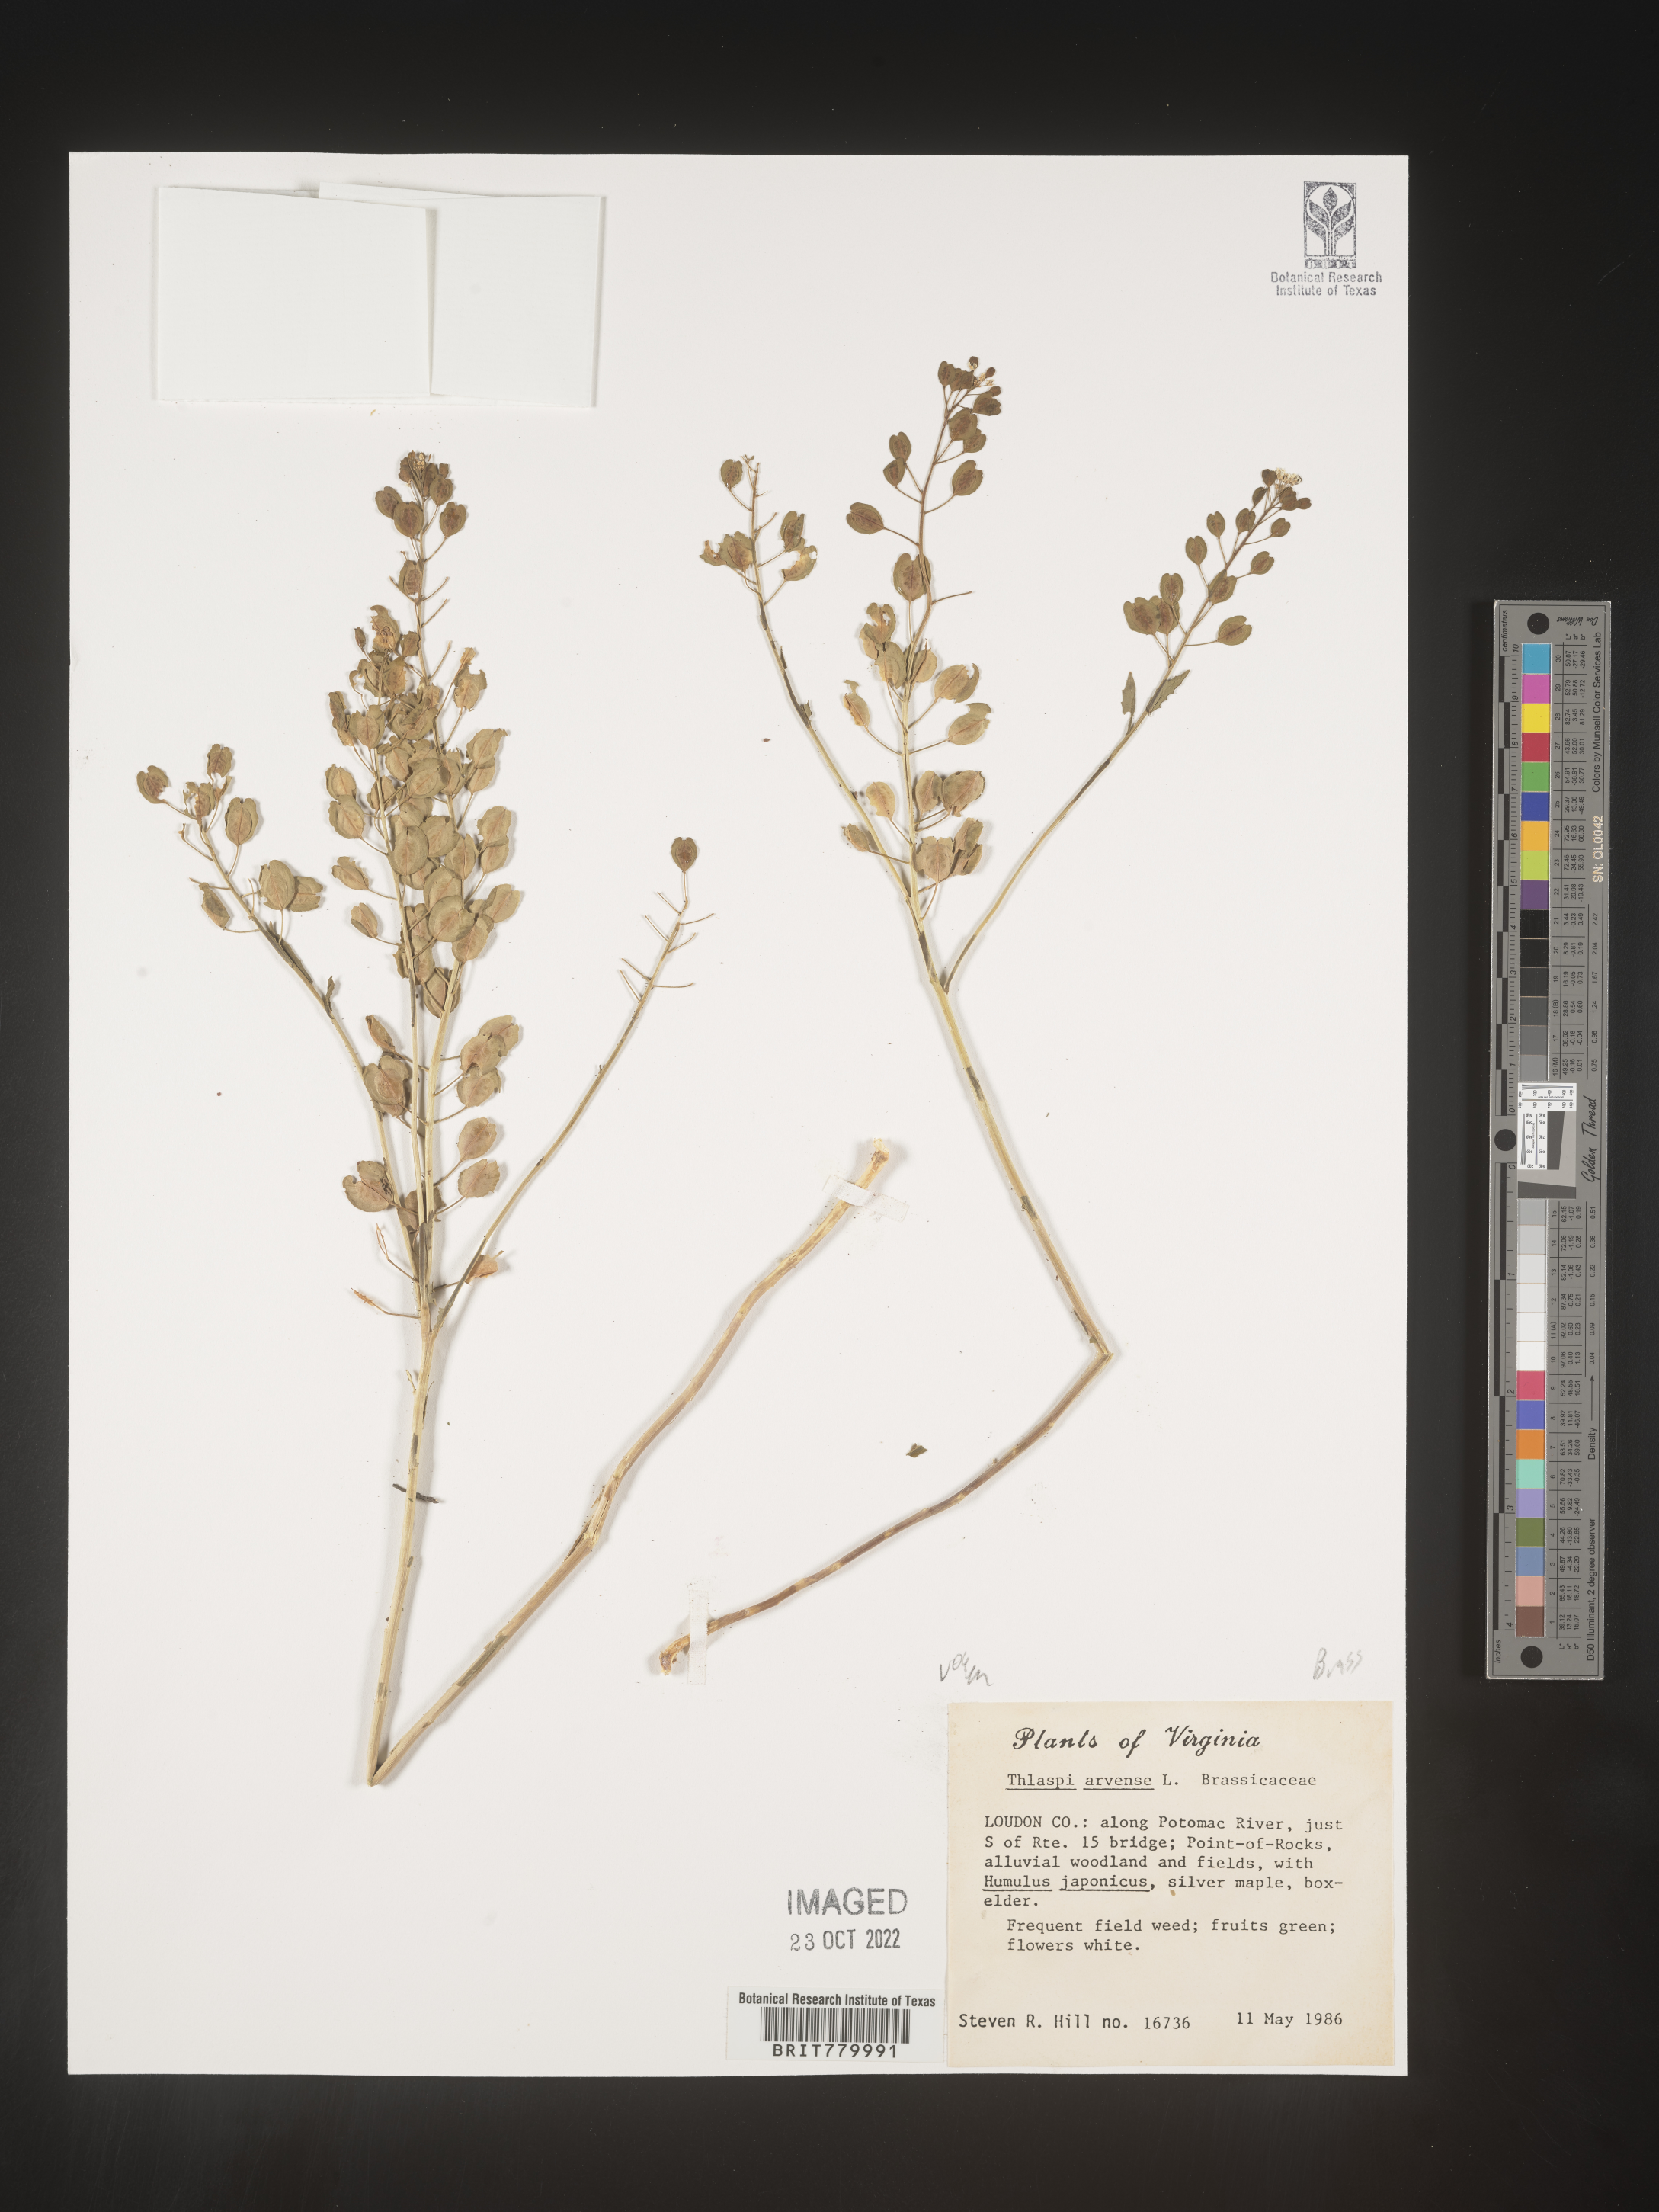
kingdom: Plantae
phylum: Tracheophyta
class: Magnoliopsida
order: Brassicales
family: Brassicaceae
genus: Thlaspi
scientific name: Thlaspi arvense
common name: Field pennycress
